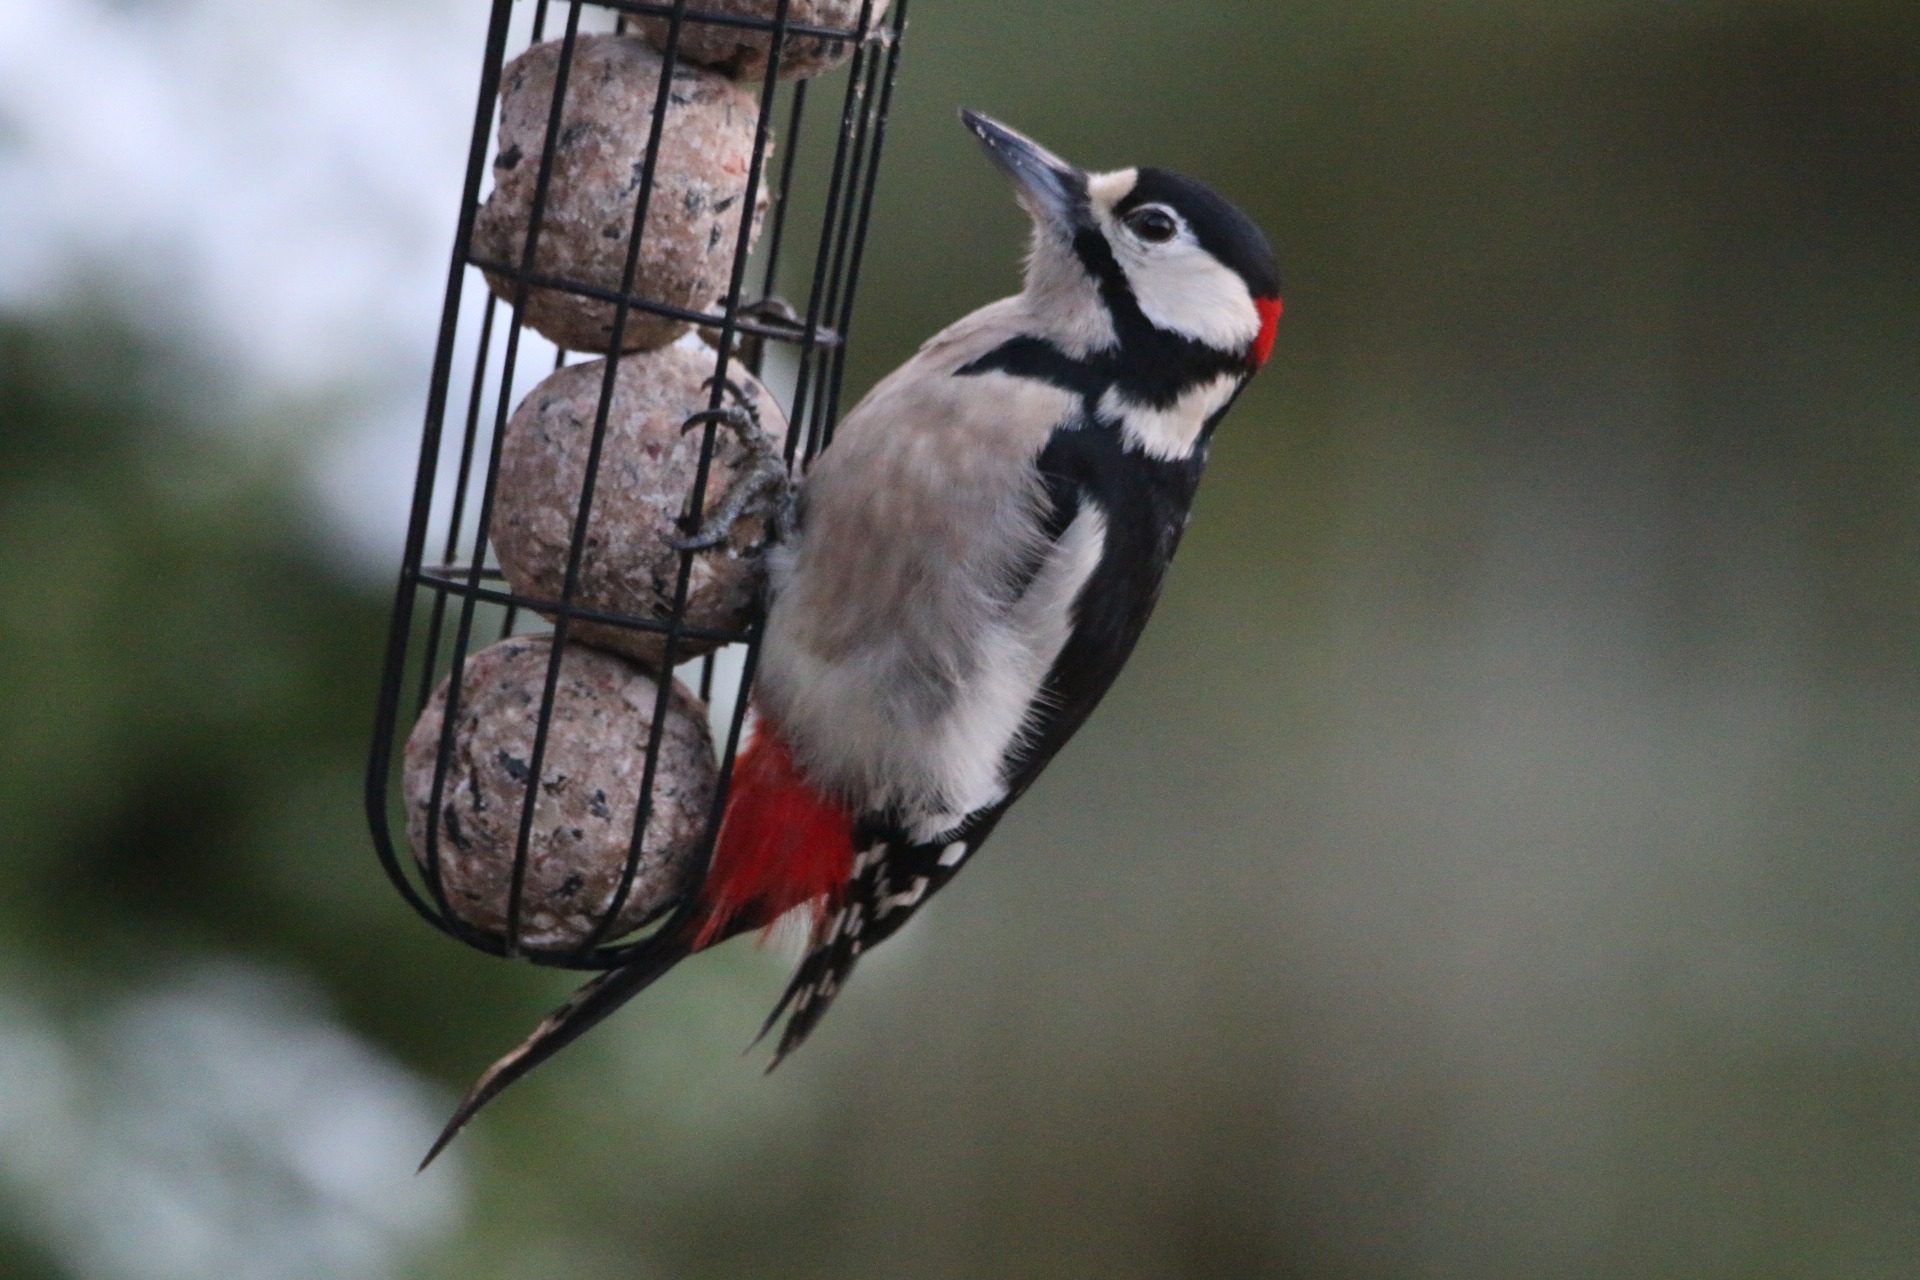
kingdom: Animalia
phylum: Chordata
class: Aves
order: Piciformes
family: Picidae
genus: Dendrocopos
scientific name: Dendrocopos major
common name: Stor flagspætte
